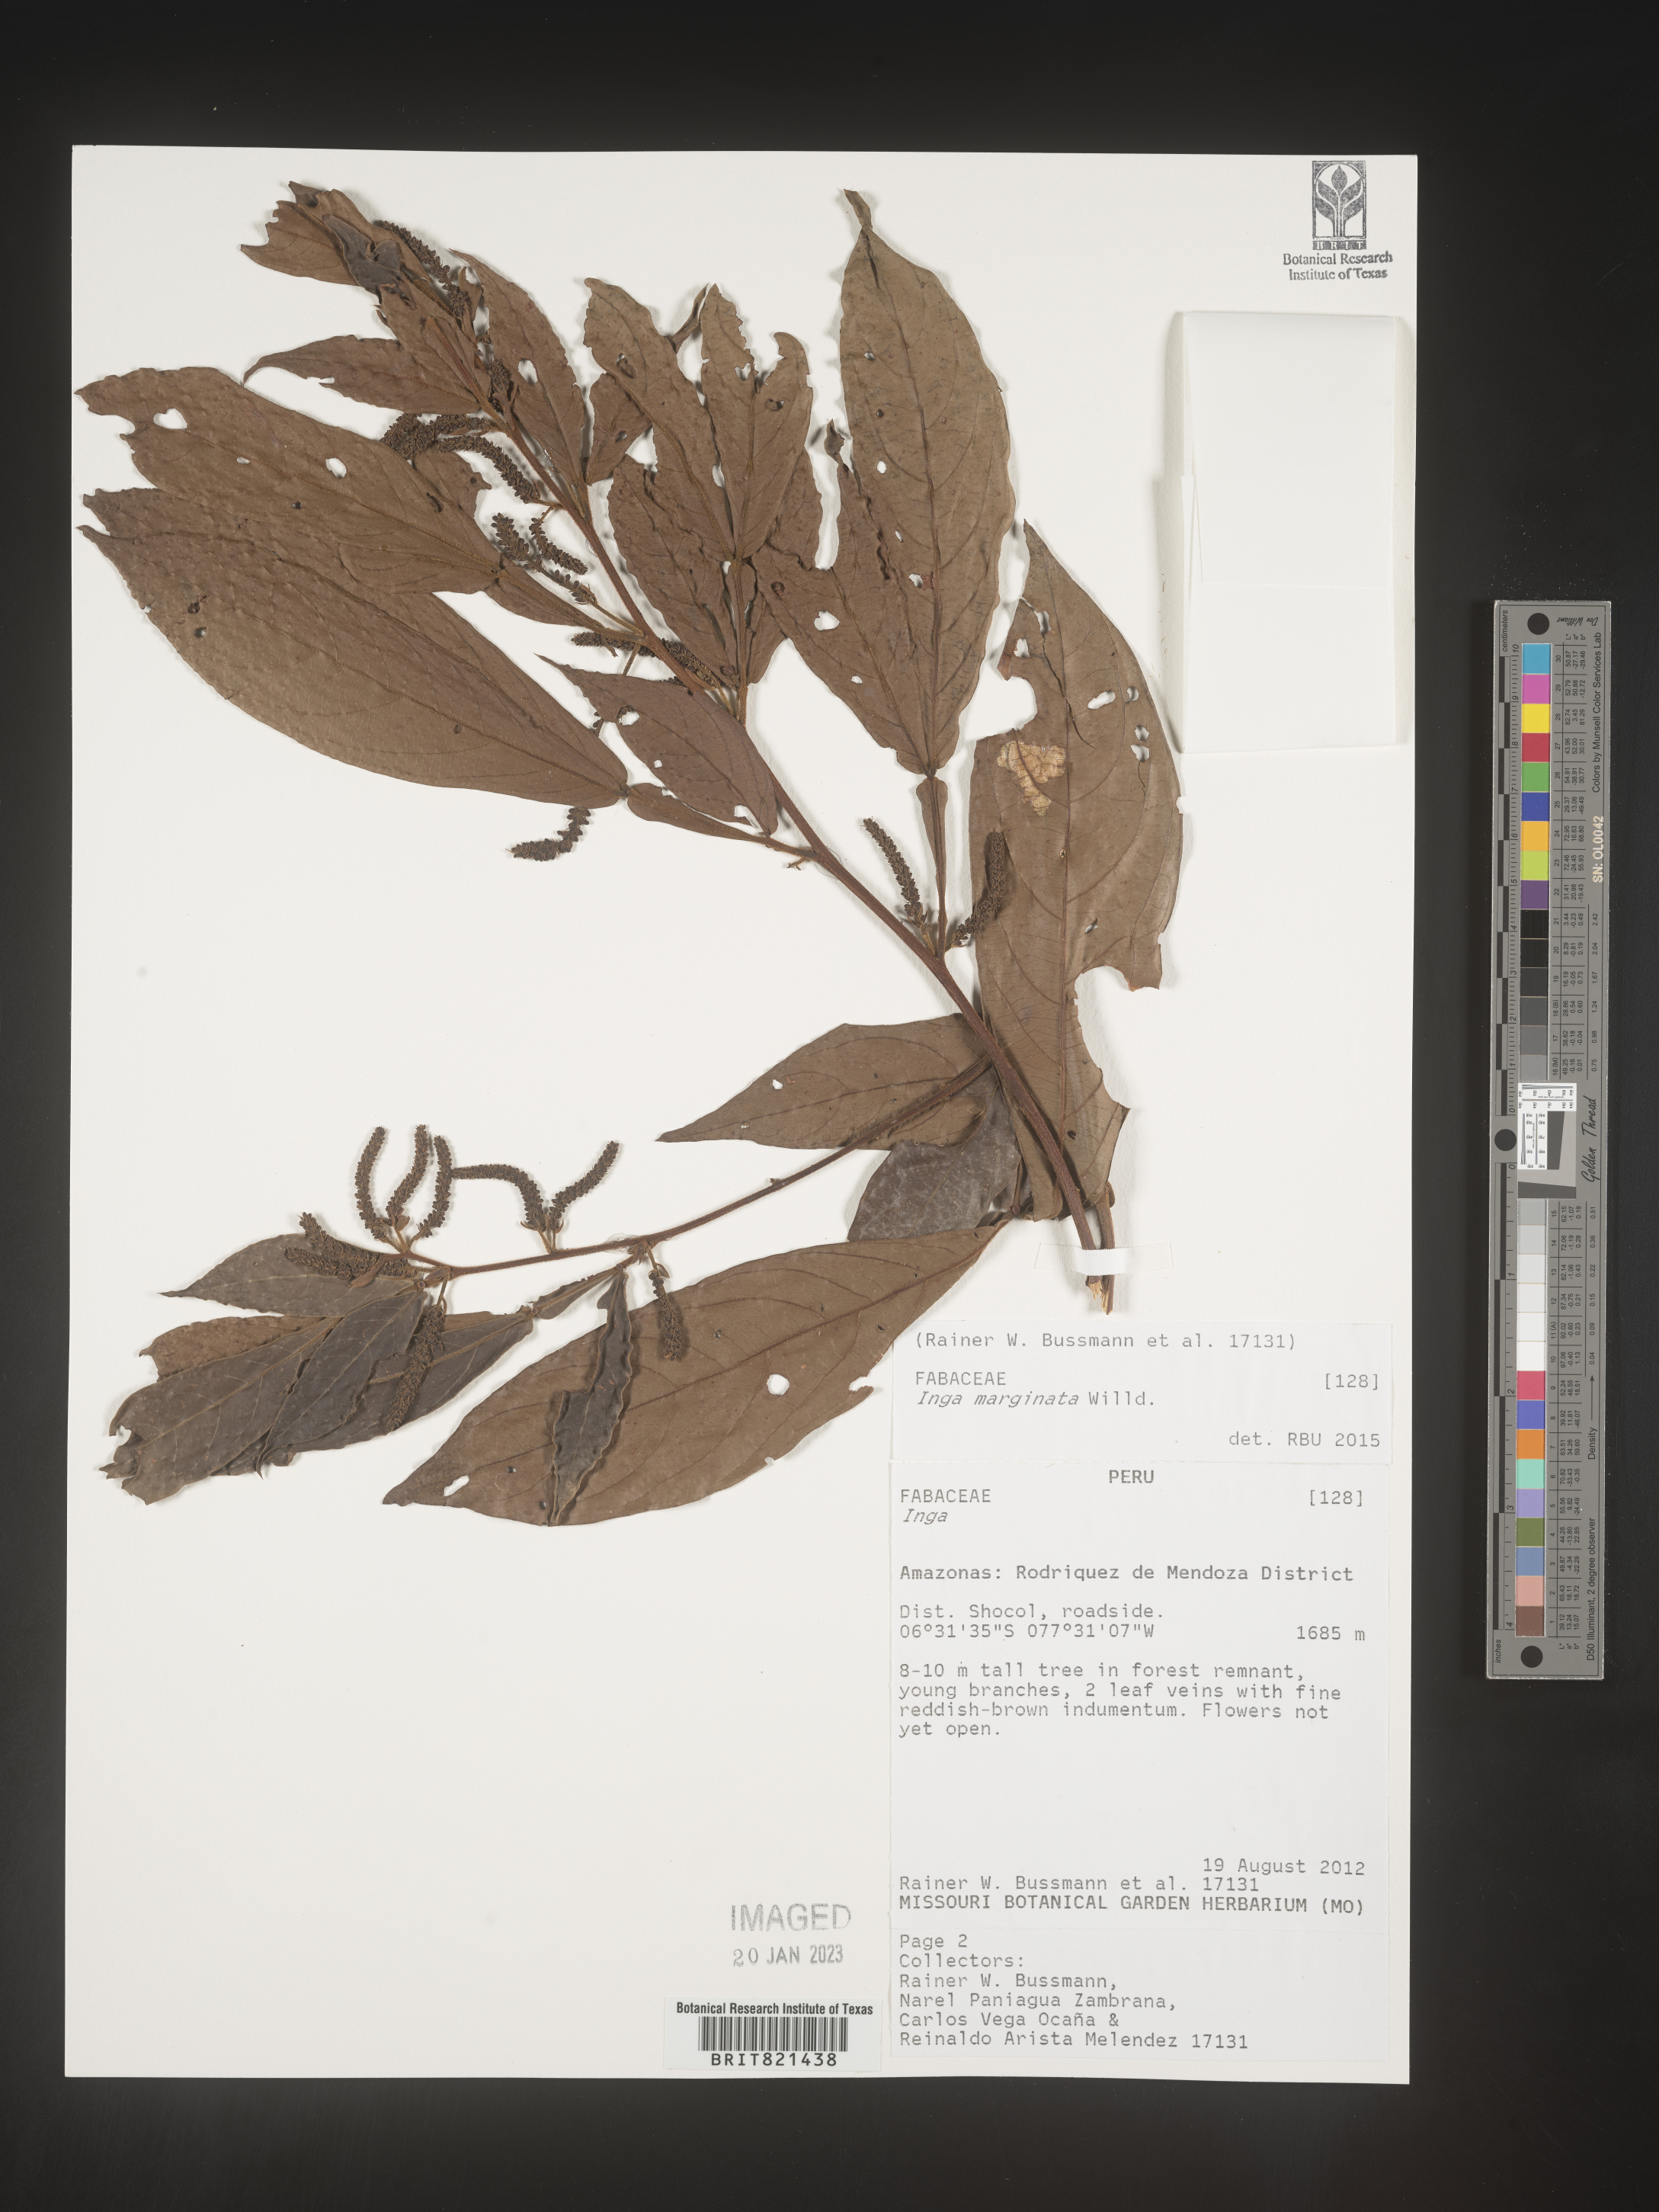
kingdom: Plantae
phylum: Tracheophyta
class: Magnoliopsida
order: Fabales
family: Fabaceae
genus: Inga
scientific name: Inga
